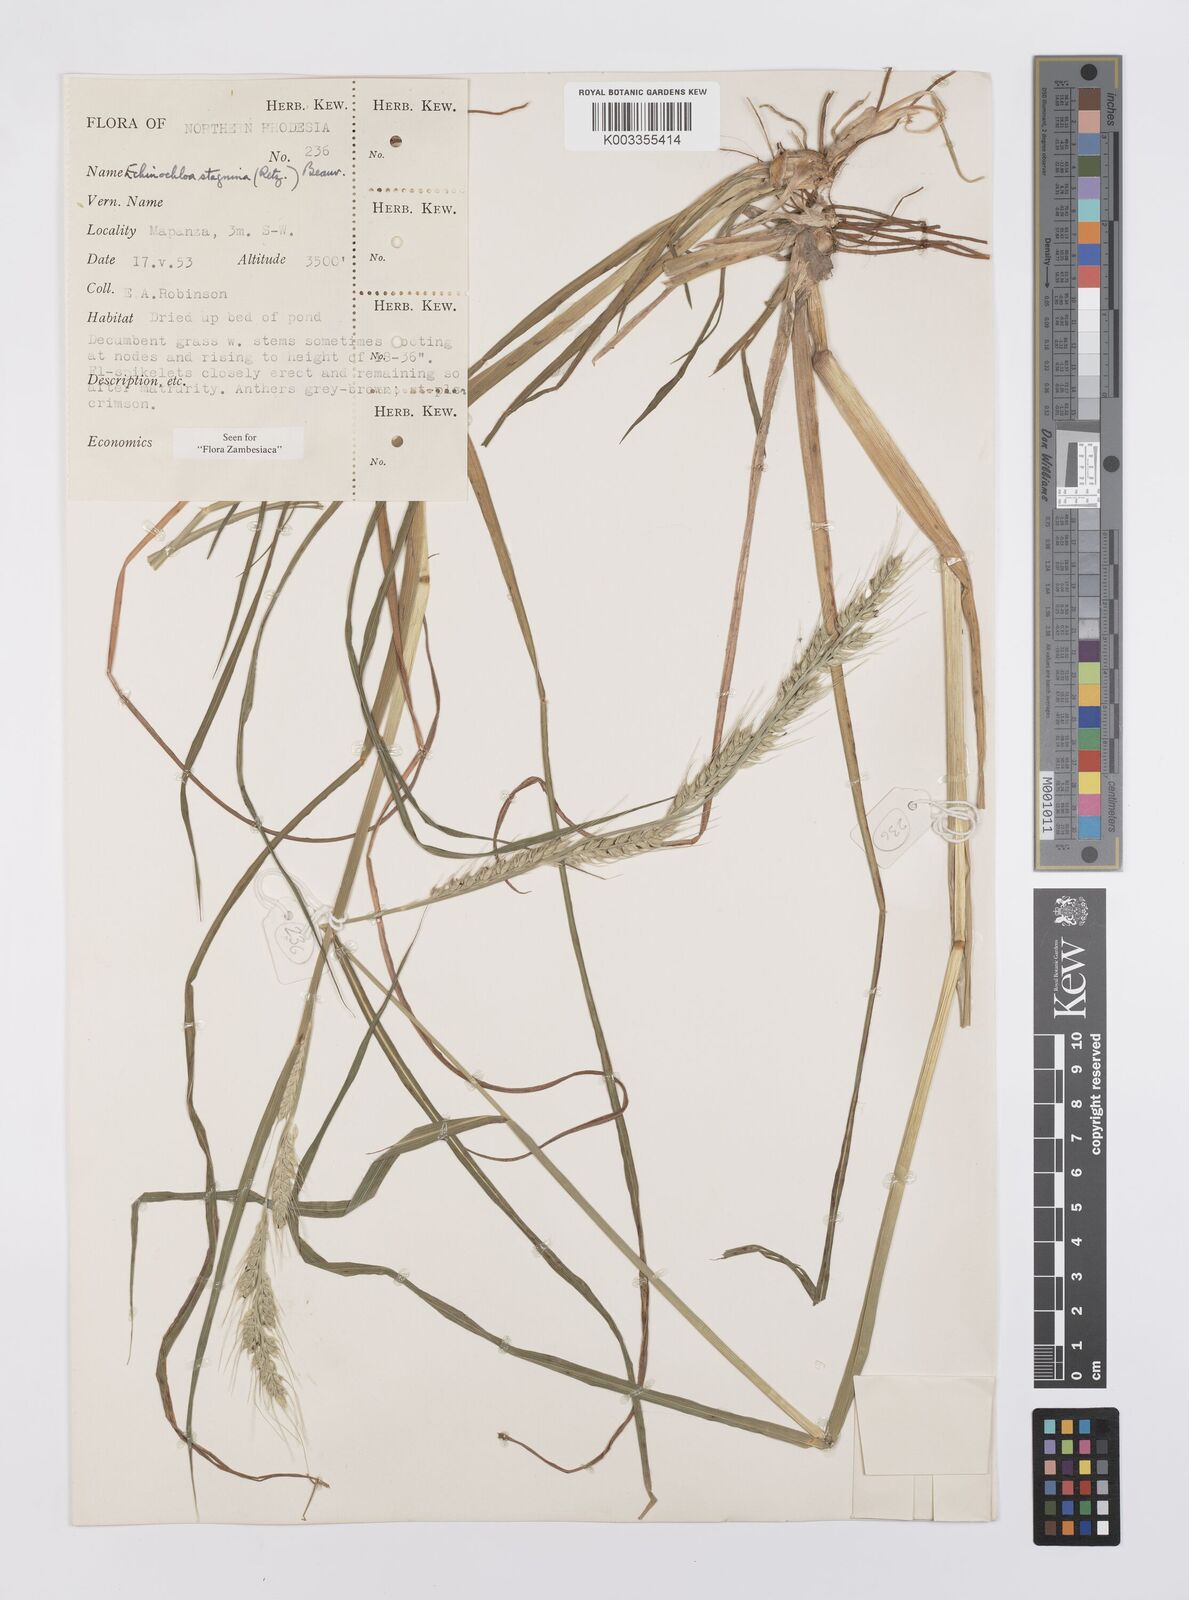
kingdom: Plantae
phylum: Tracheophyta
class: Liliopsida
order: Poales
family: Poaceae
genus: Echinochloa
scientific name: Echinochloa stagnina
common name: Burgu grass
